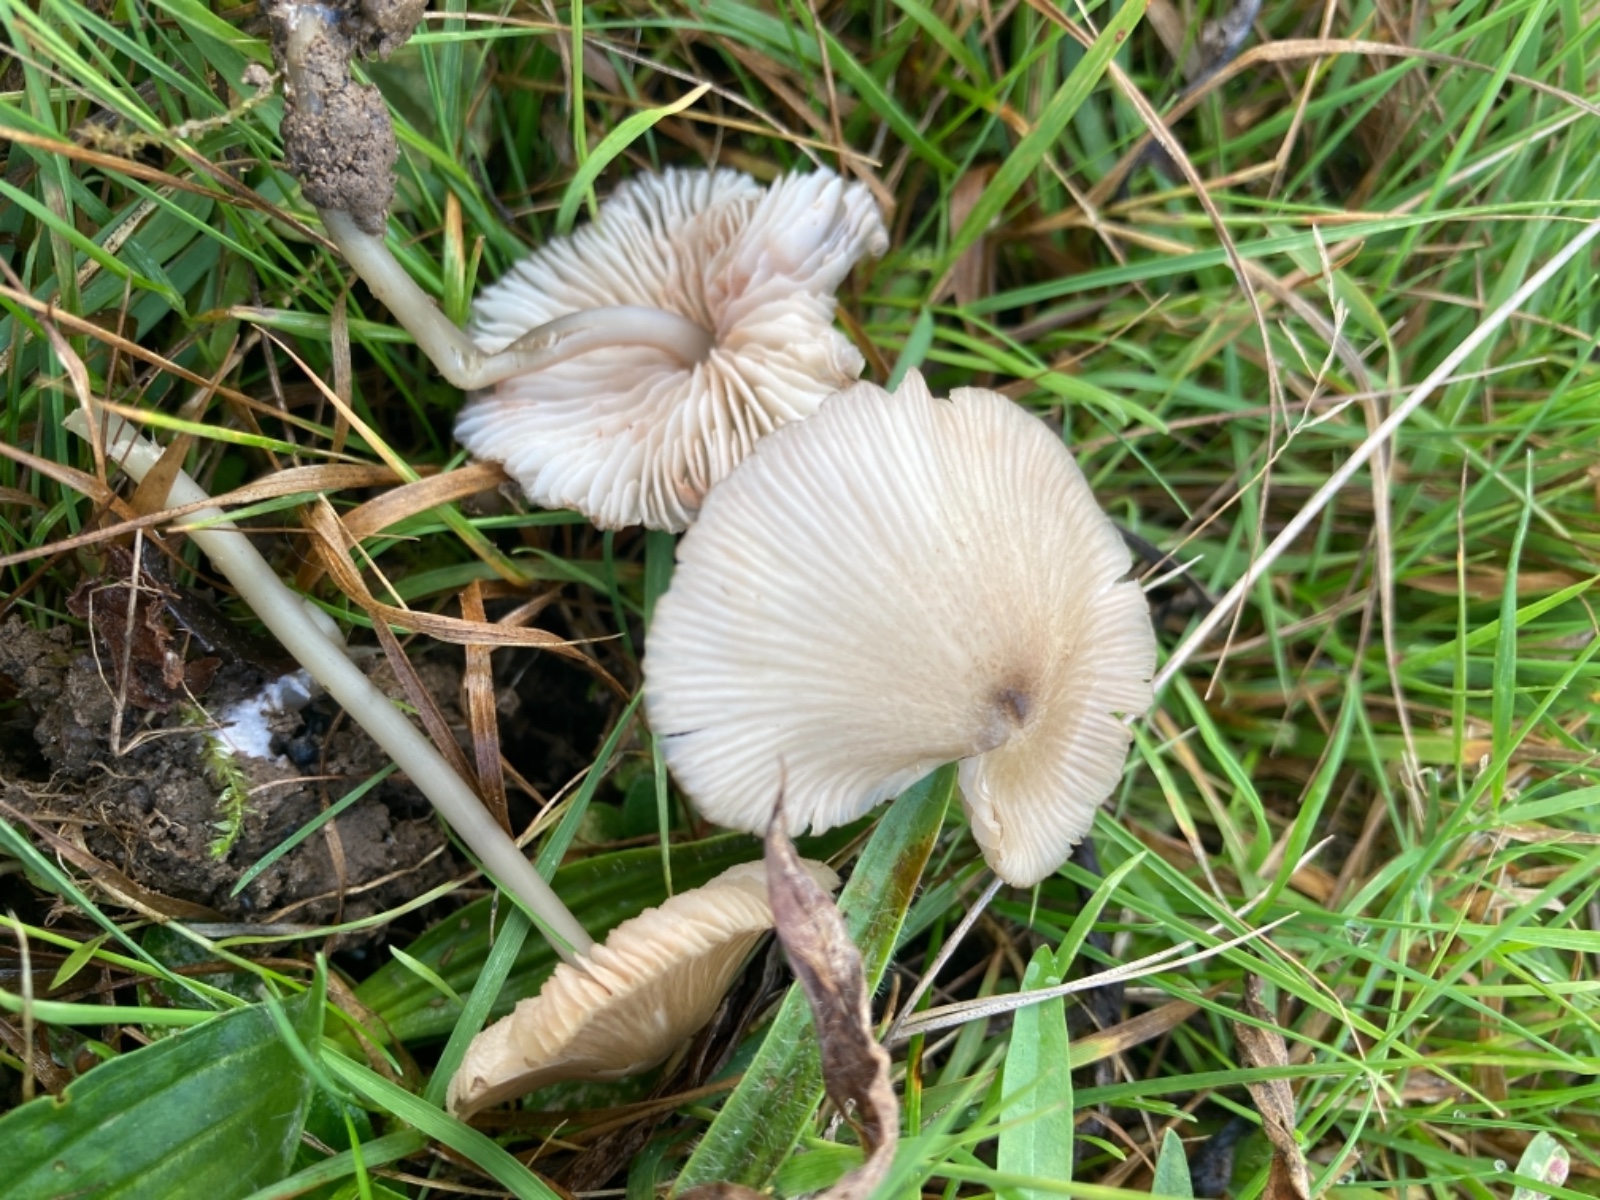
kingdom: Fungi
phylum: Basidiomycota
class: Agaricomycetes
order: Agaricales
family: Entolomataceae
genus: Entoloma
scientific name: Entoloma exile
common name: rødplettet rødblad
